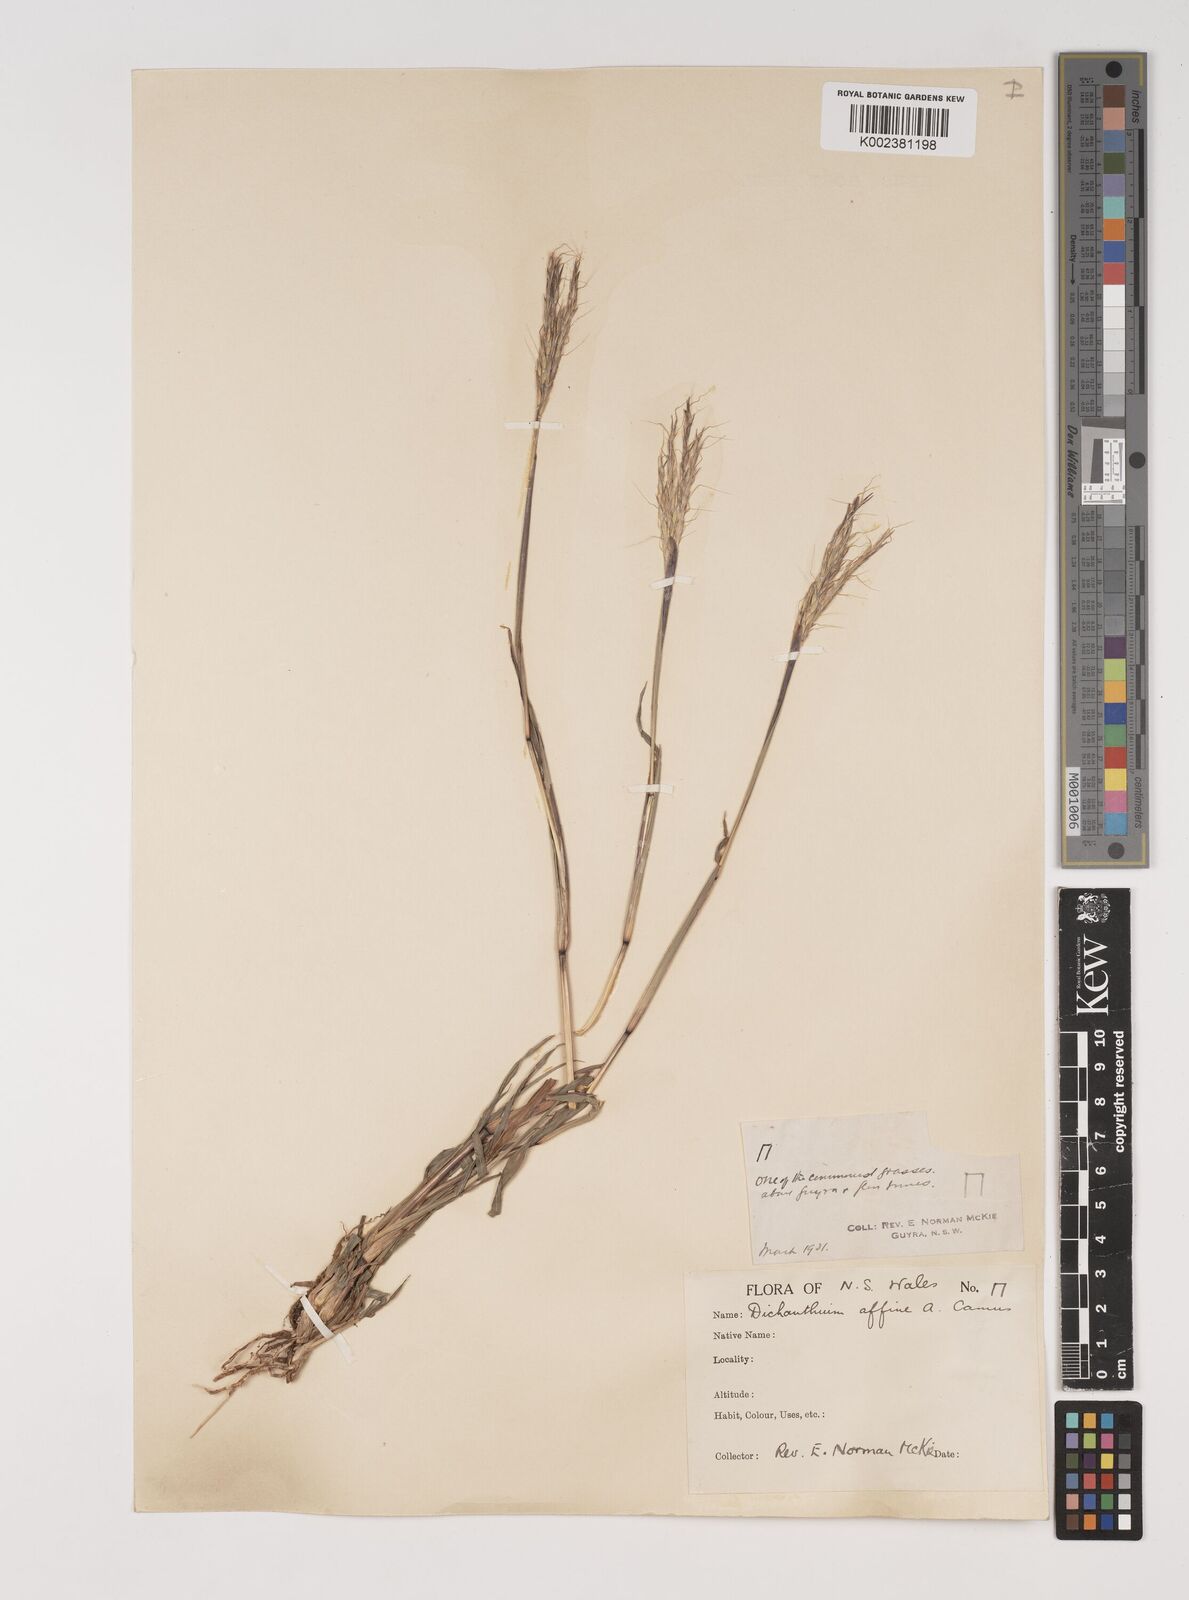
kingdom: Plantae
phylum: Tracheophyta
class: Liliopsida
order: Poales
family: Poaceae
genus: Bothriochloa
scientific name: Bothriochloa macra
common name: Pitted beard grass
